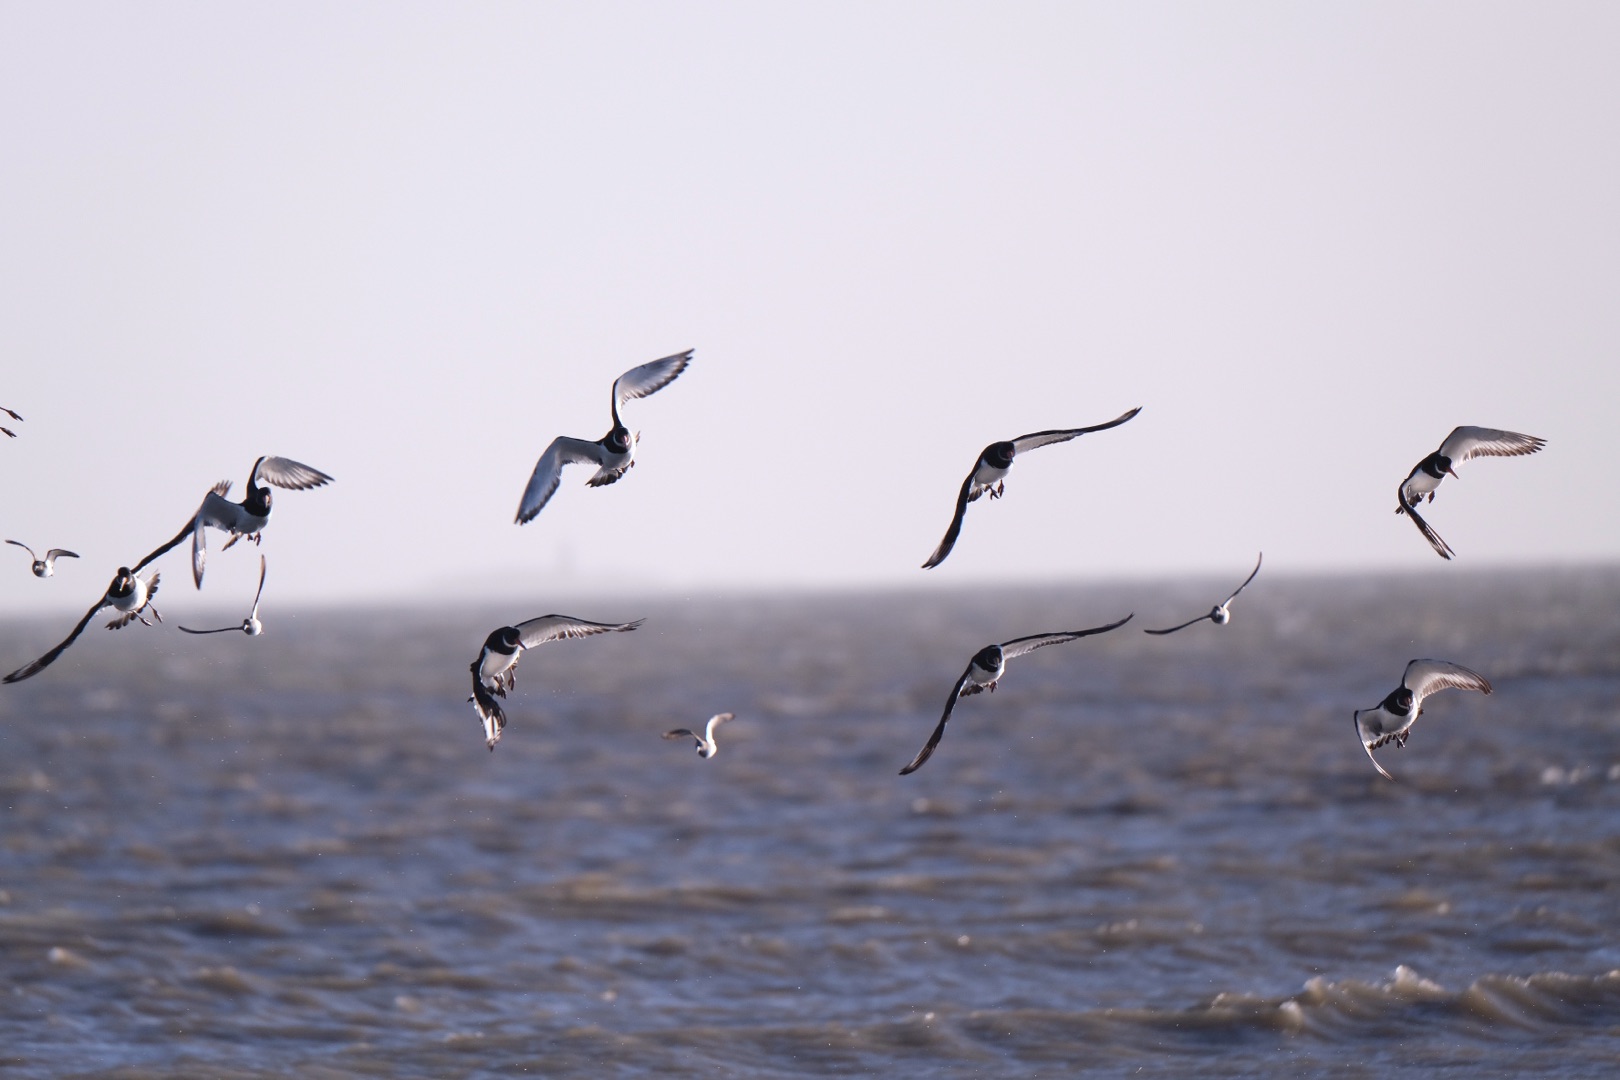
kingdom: Animalia
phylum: Chordata
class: Aves
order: Charadriiformes
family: Haematopodidae
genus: Haematopus
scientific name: Haematopus ostralegus
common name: Strandskade
